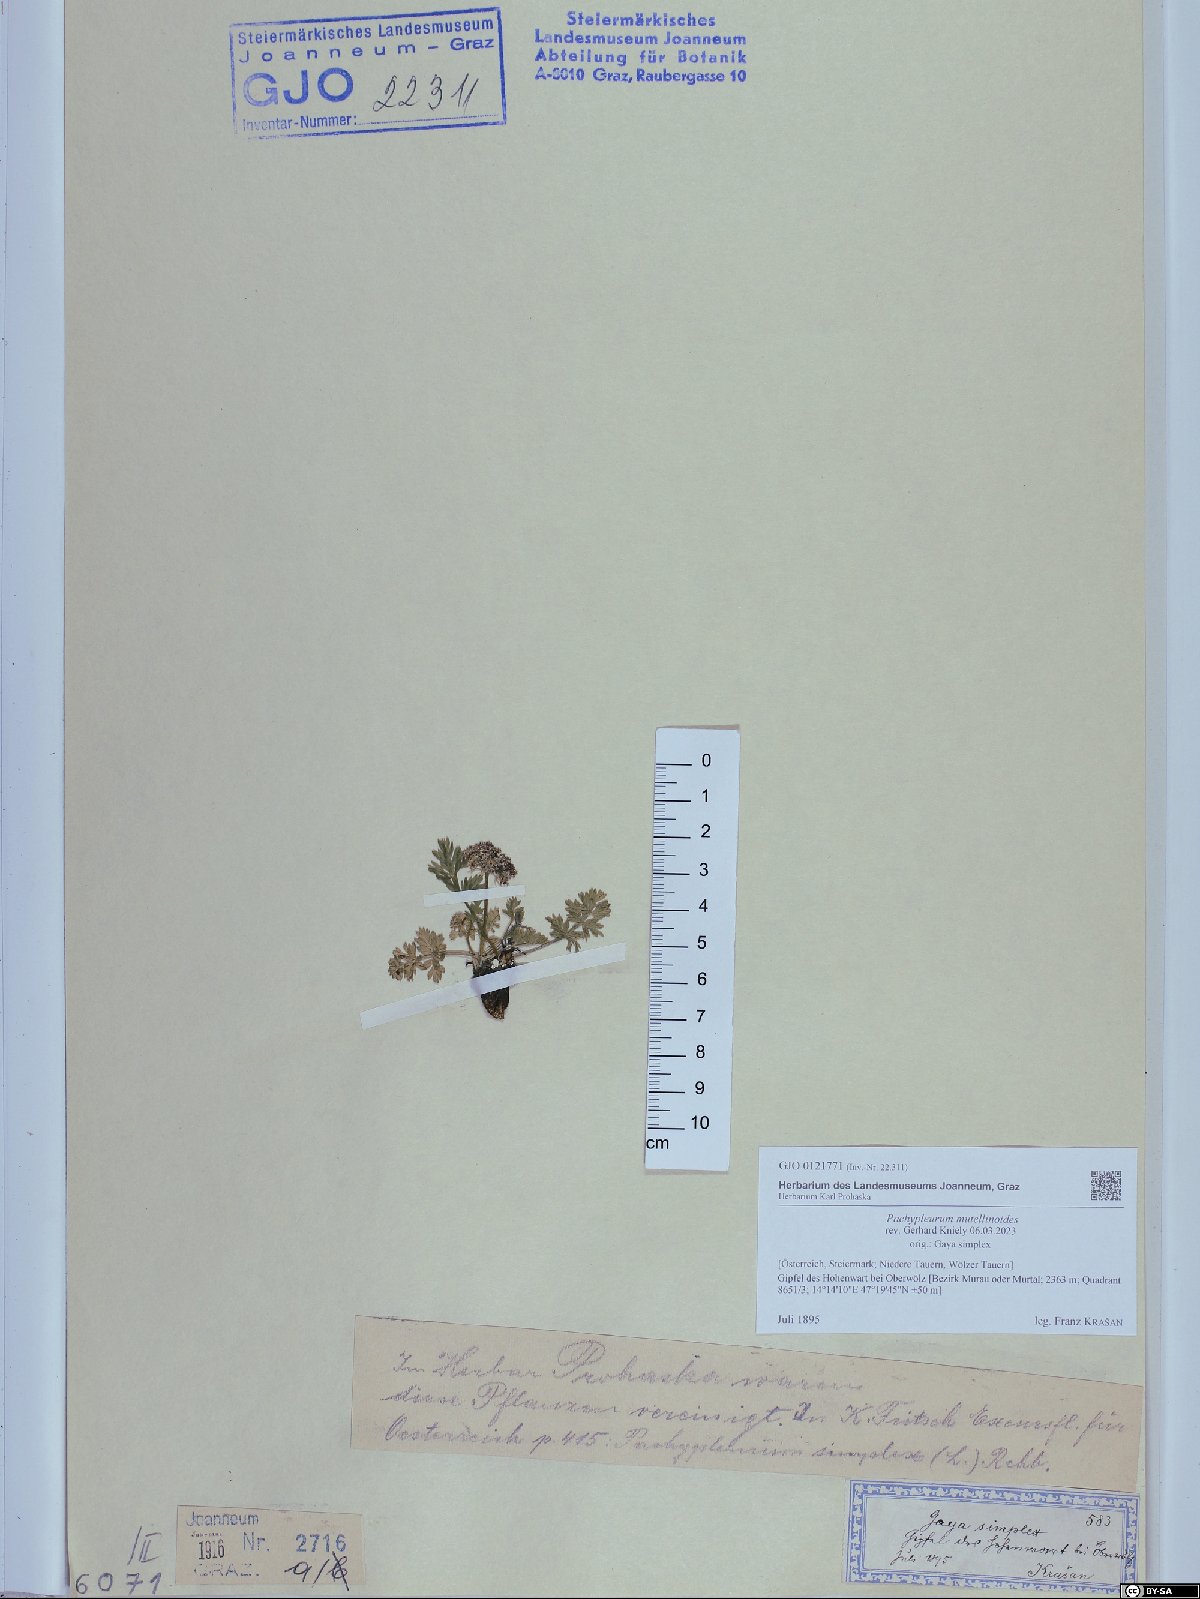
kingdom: Plantae
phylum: Tracheophyta
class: Magnoliopsida
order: Apiales
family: Apiaceae
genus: Pachypleurum
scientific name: Pachypleurum mutellinoides
